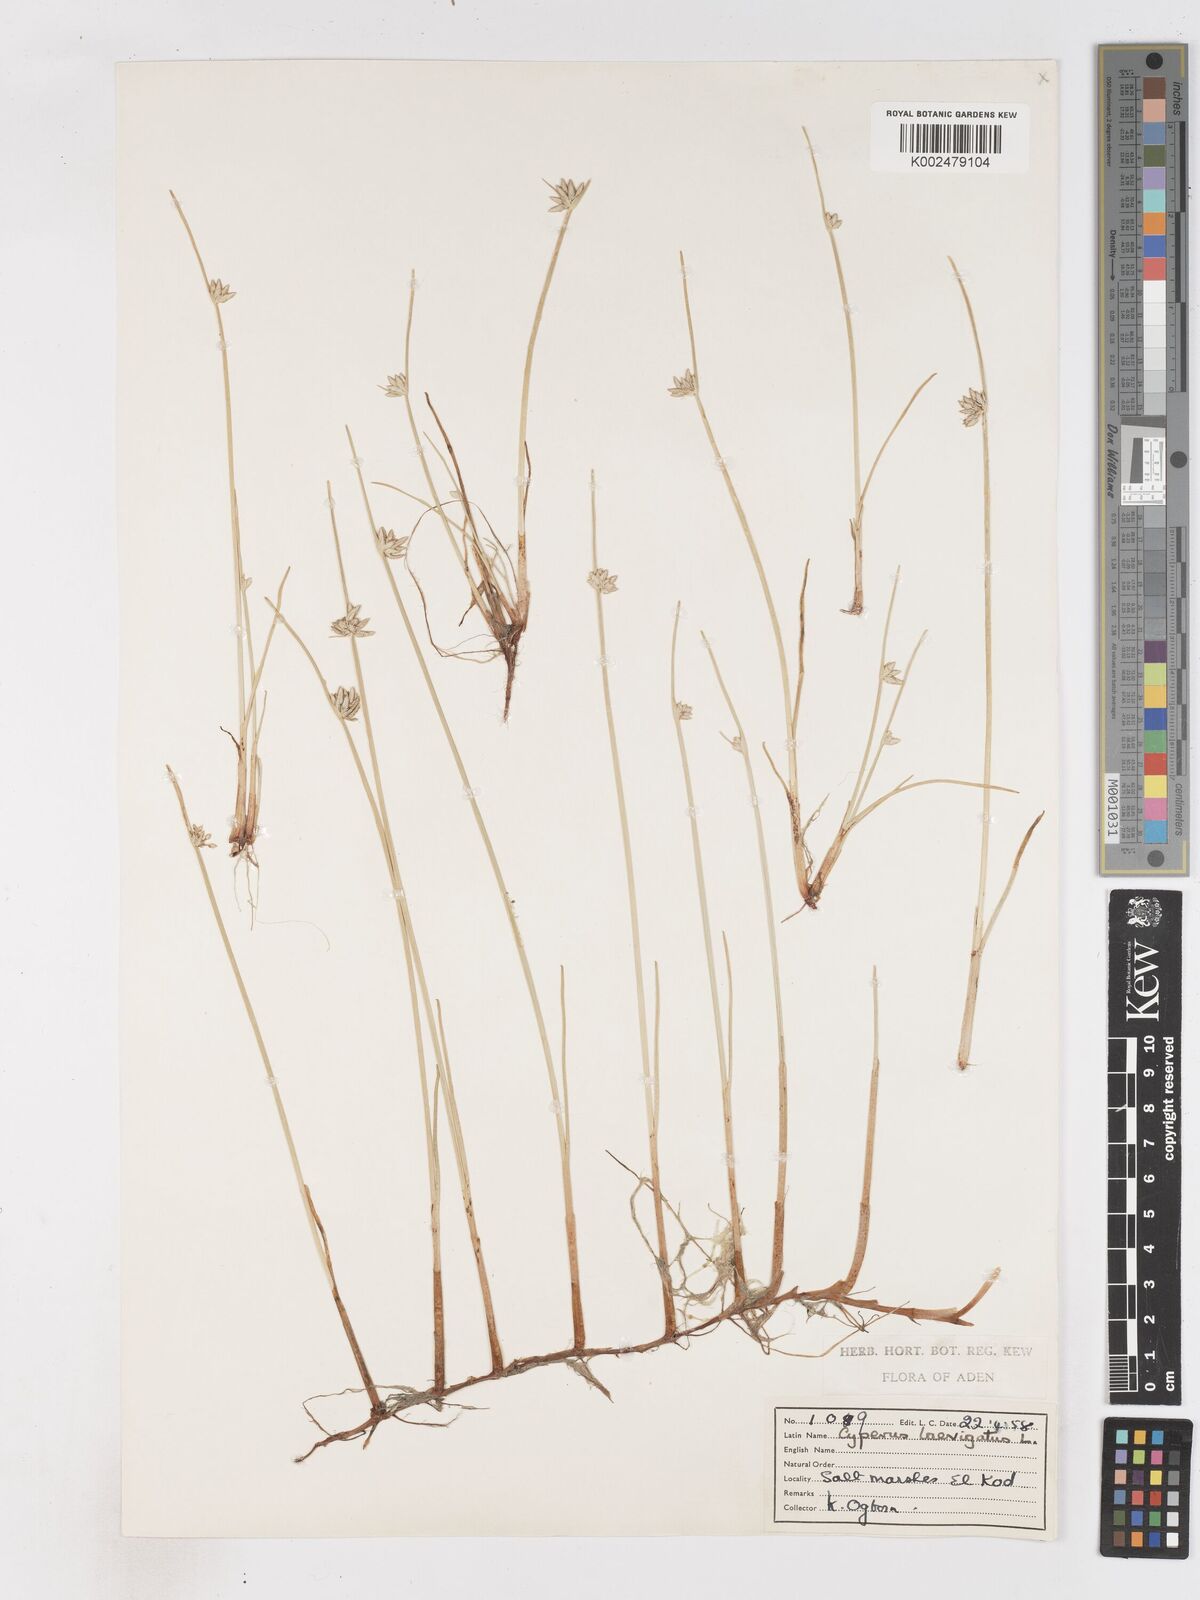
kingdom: Plantae
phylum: Tracheophyta
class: Liliopsida
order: Poales
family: Cyperaceae
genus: Cyperus
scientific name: Cyperus laevigatus
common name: Smooth flat sedge
